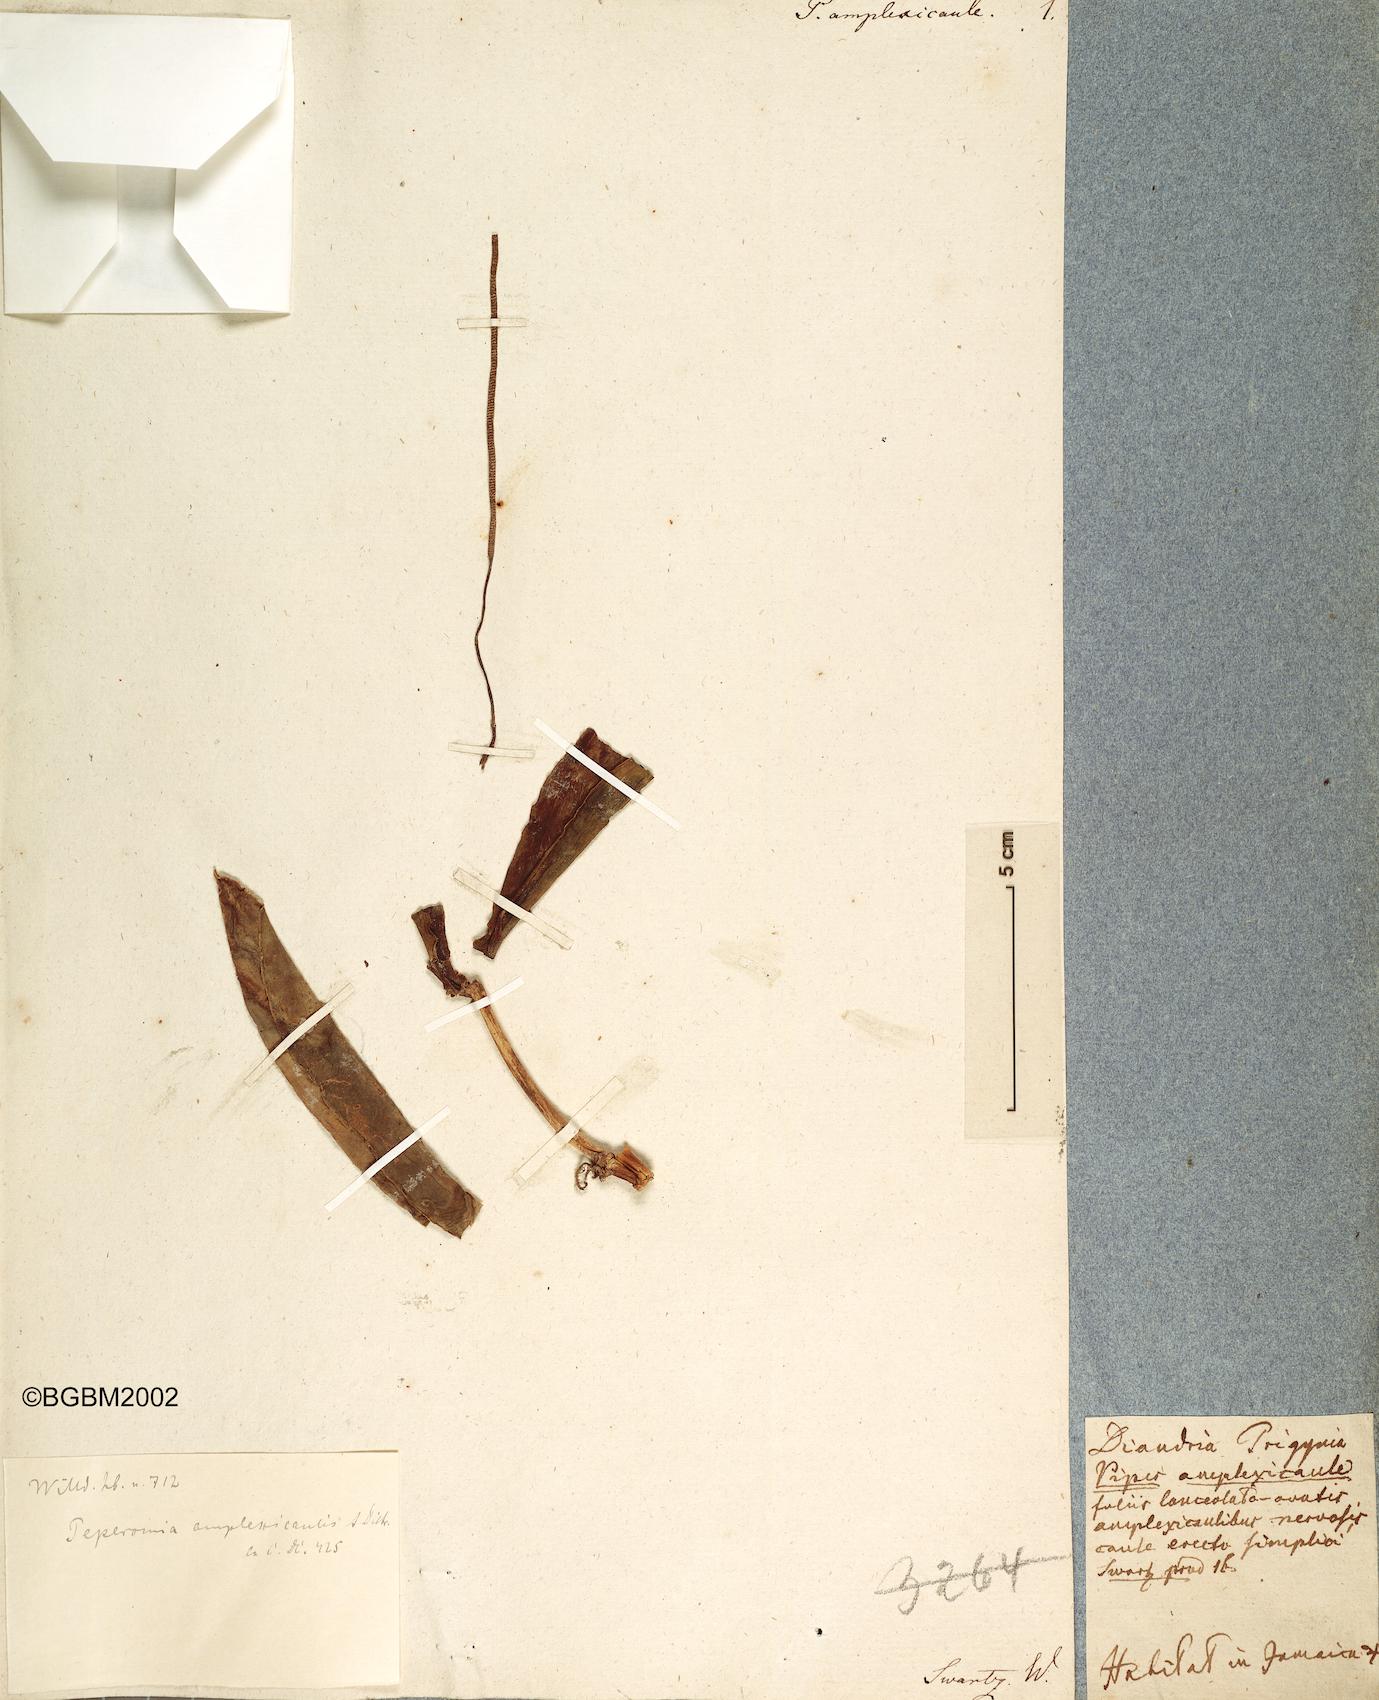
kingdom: Plantae
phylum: Tracheophyta
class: Magnoliopsida
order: Piperales
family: Piperaceae
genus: Peperomia
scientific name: Peperomia amplexicaulis
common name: Jackie's saddle
